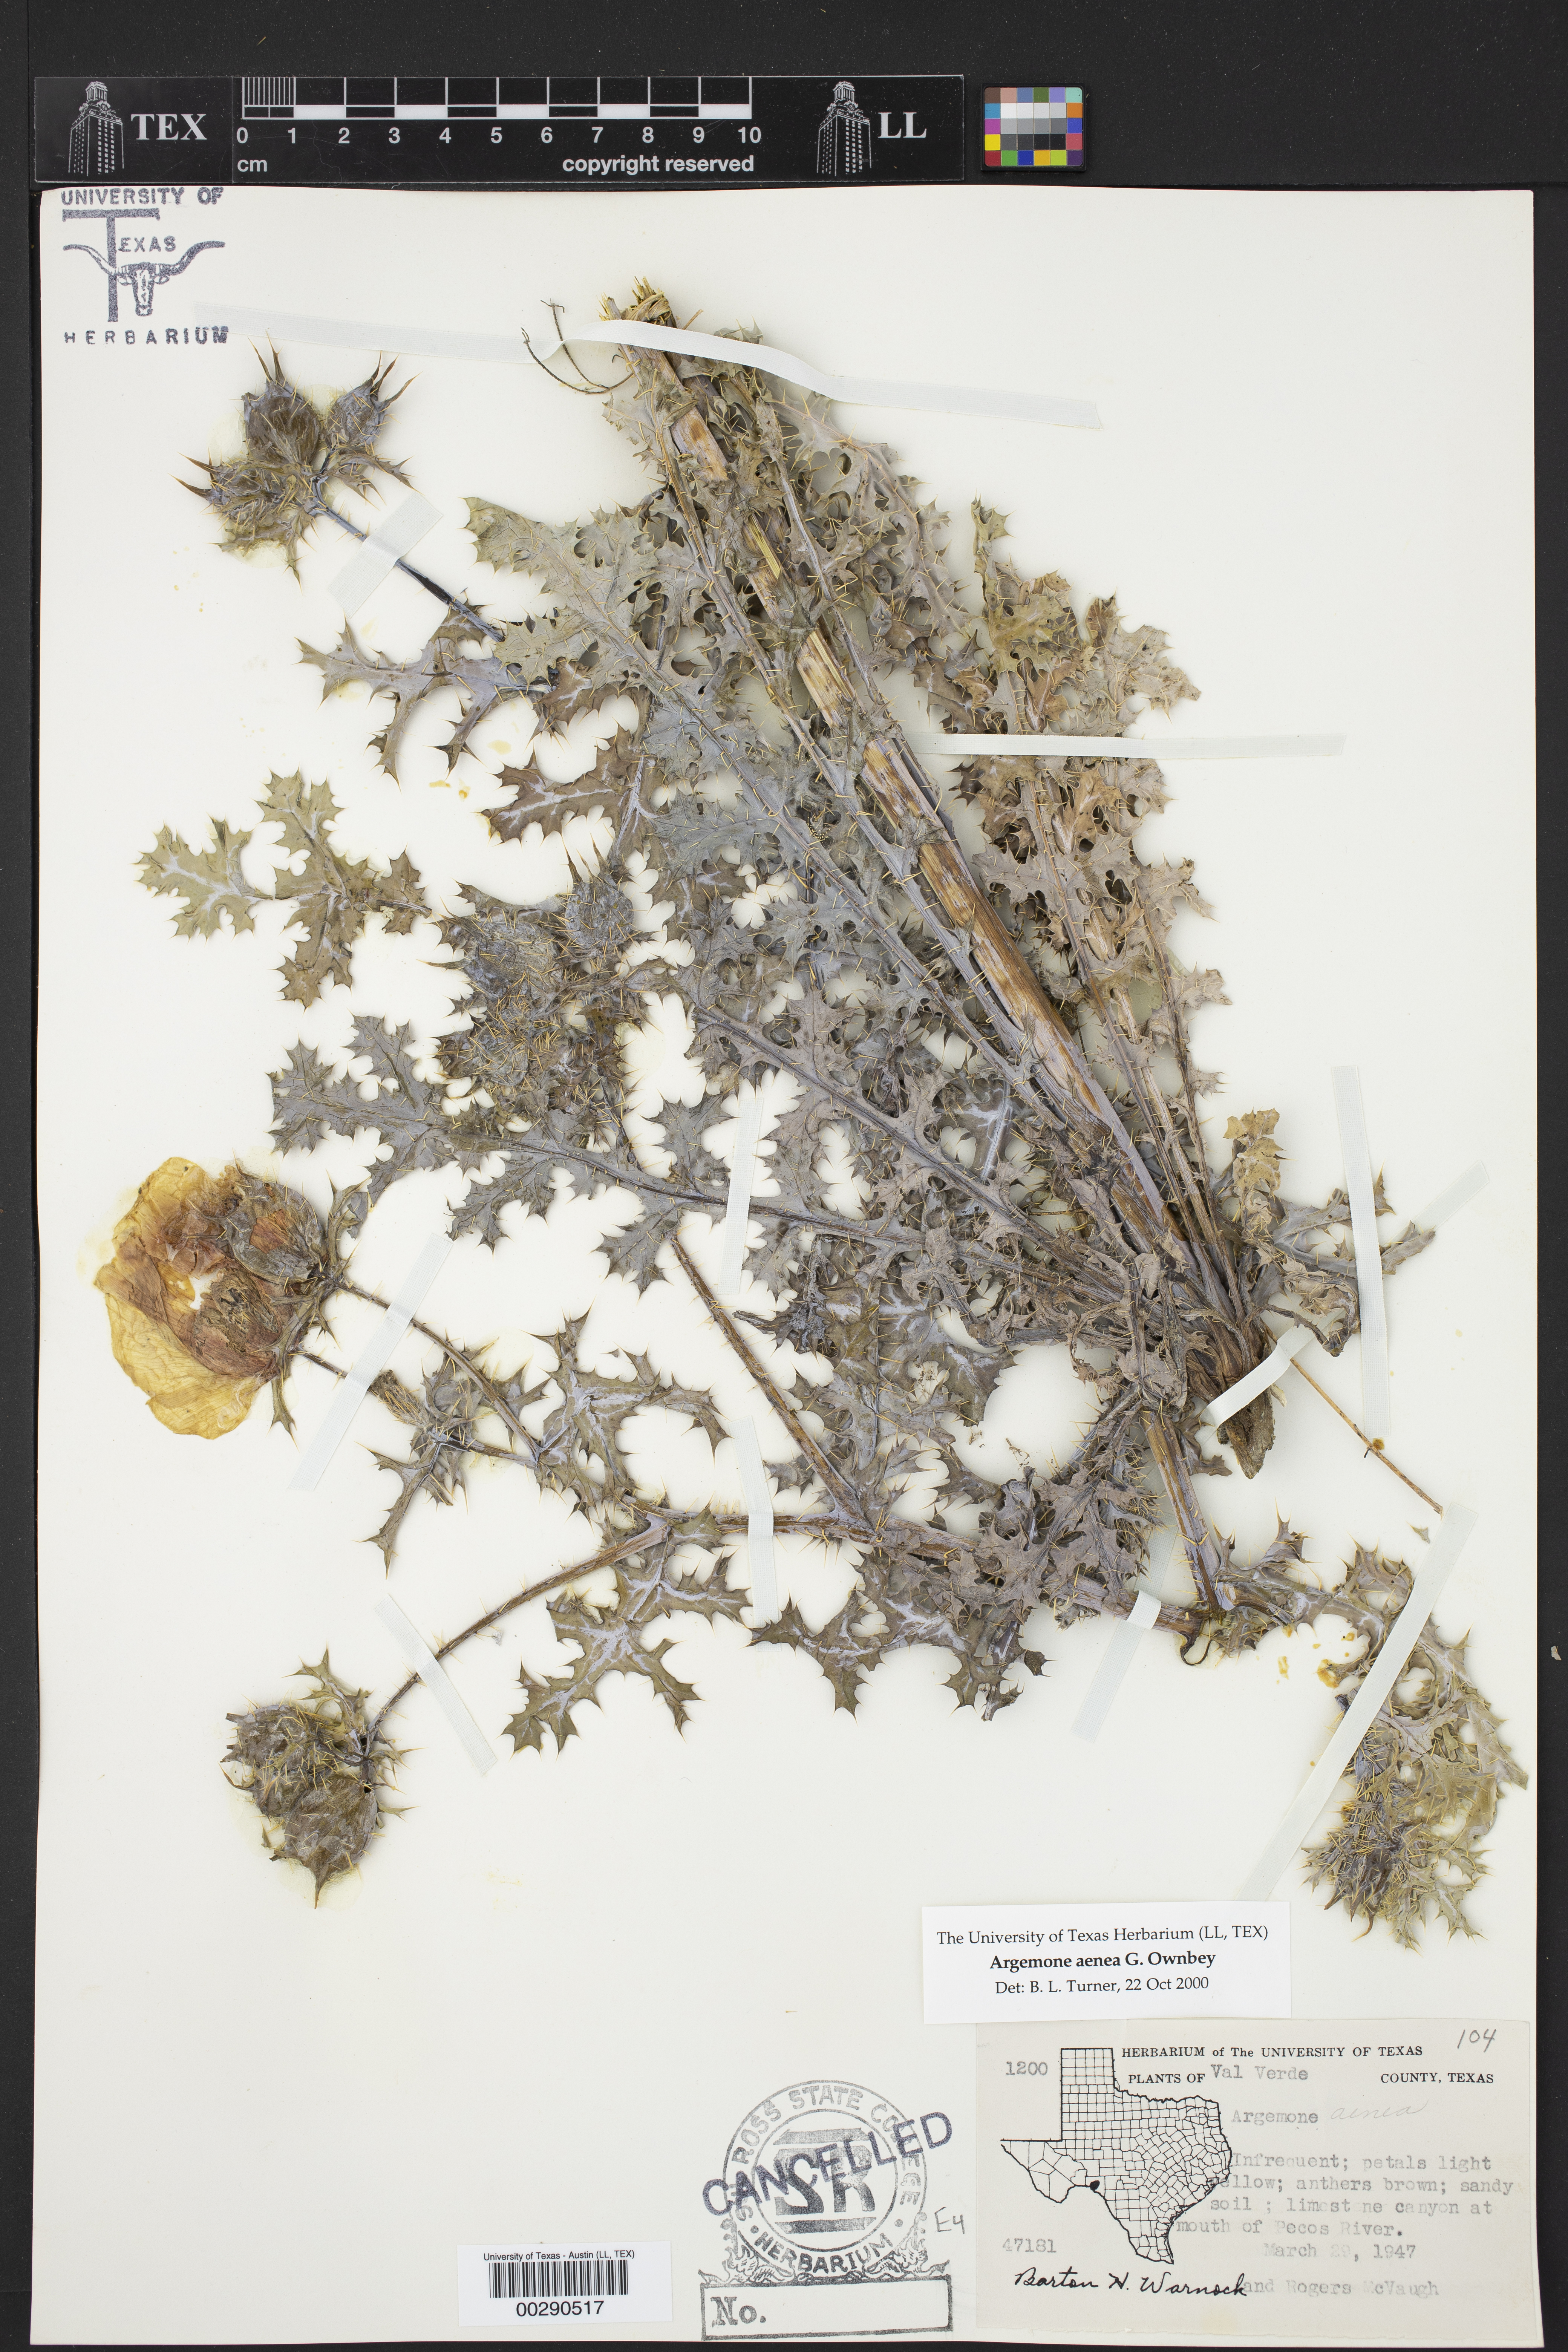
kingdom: Plantae
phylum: Tracheophyta
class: Magnoliopsida
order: Ranunculales
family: Papaveraceae
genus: Argemone
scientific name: Argemone aenea
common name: Golden prickly-poppy
